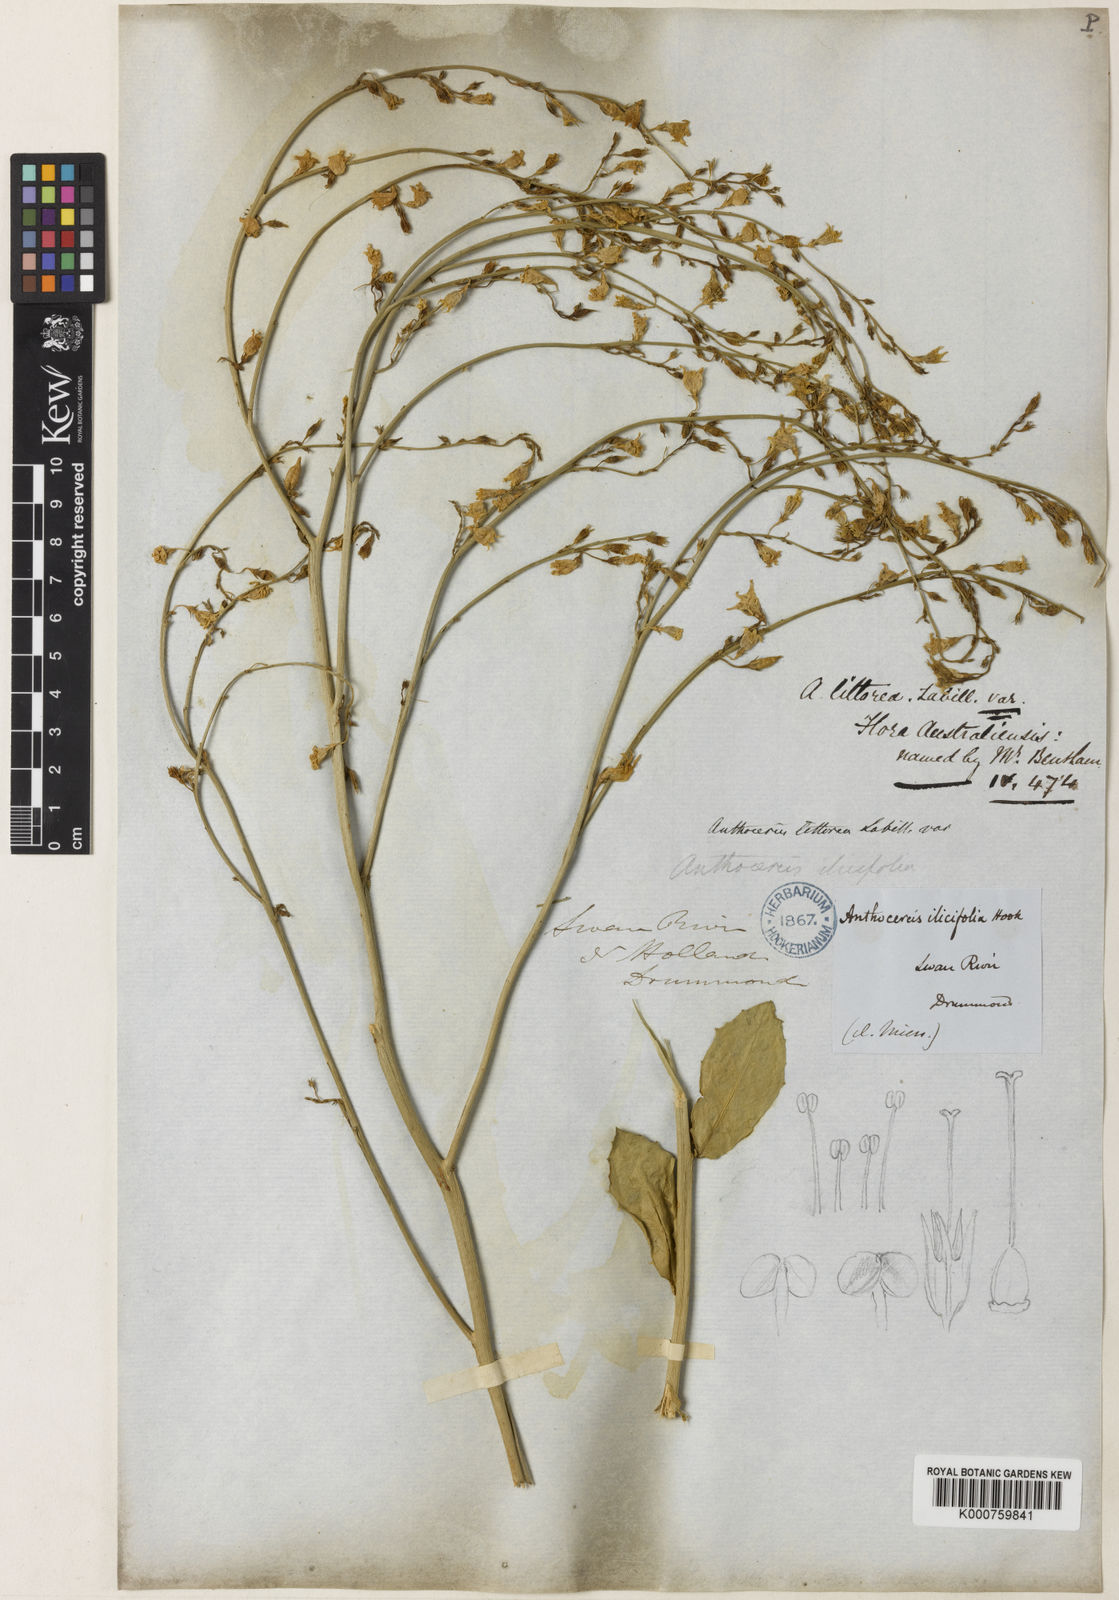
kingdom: Plantae
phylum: Tracheophyta
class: Magnoliopsida
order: Solanales
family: Solanaceae
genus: Anthocercis
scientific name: Anthocercis littorea
